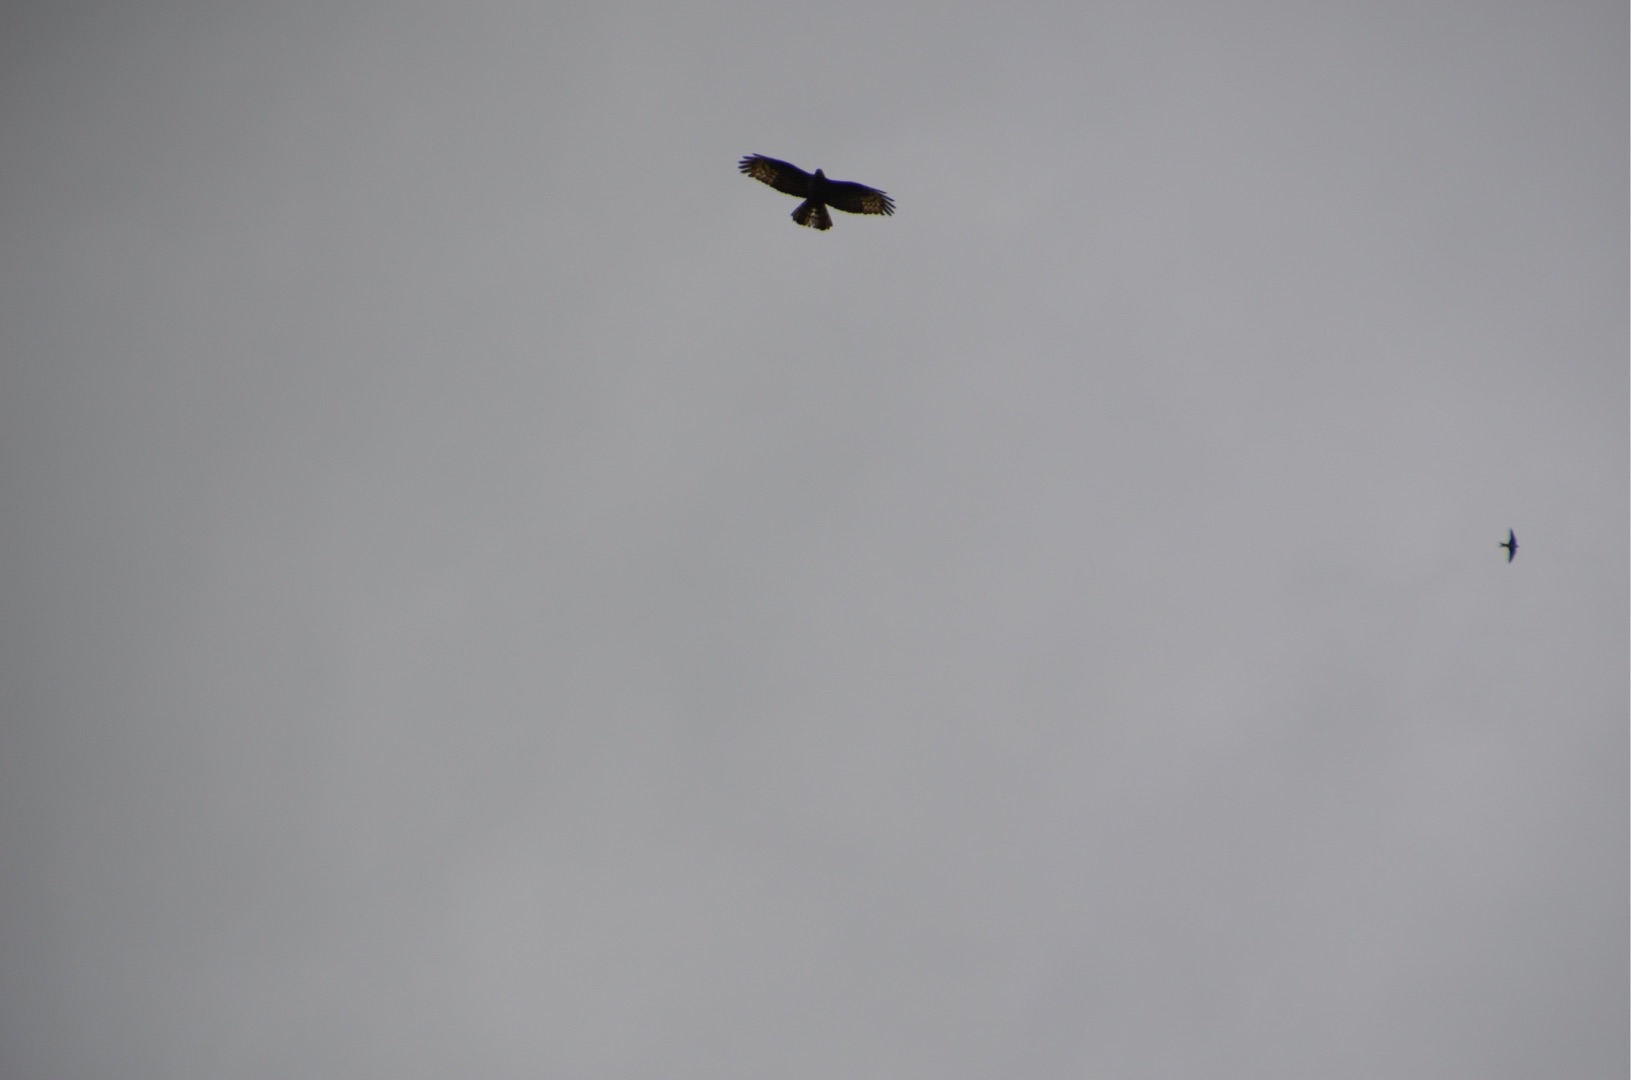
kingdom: Animalia
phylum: Chordata
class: Aves
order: Accipitriformes
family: Accipitridae
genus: Pernis
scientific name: Pernis apivorus
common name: Hvepsevåge
